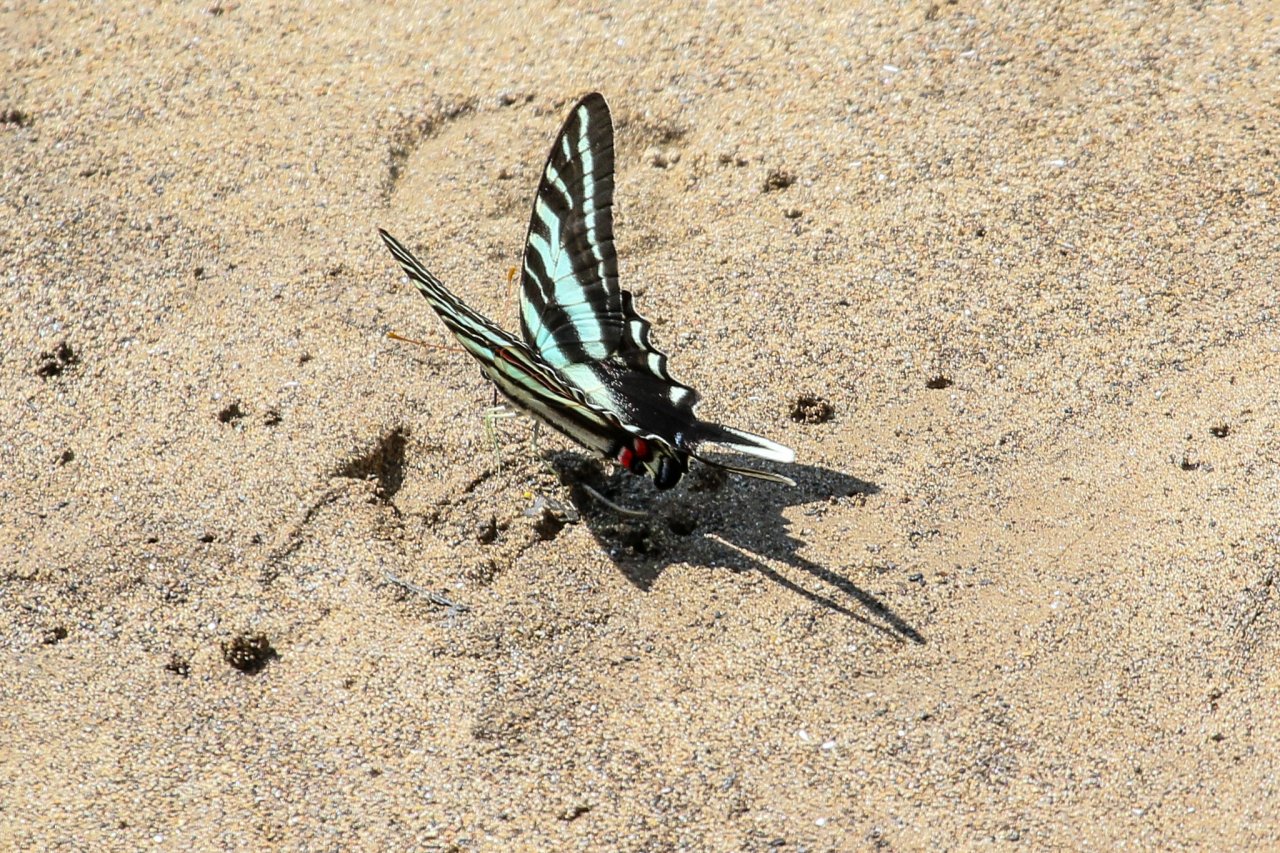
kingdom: Animalia
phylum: Arthropoda
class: Insecta
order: Lepidoptera
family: Papilionidae
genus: Protographium
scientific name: Protographium marcellus
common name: Zebra Swallowtail
